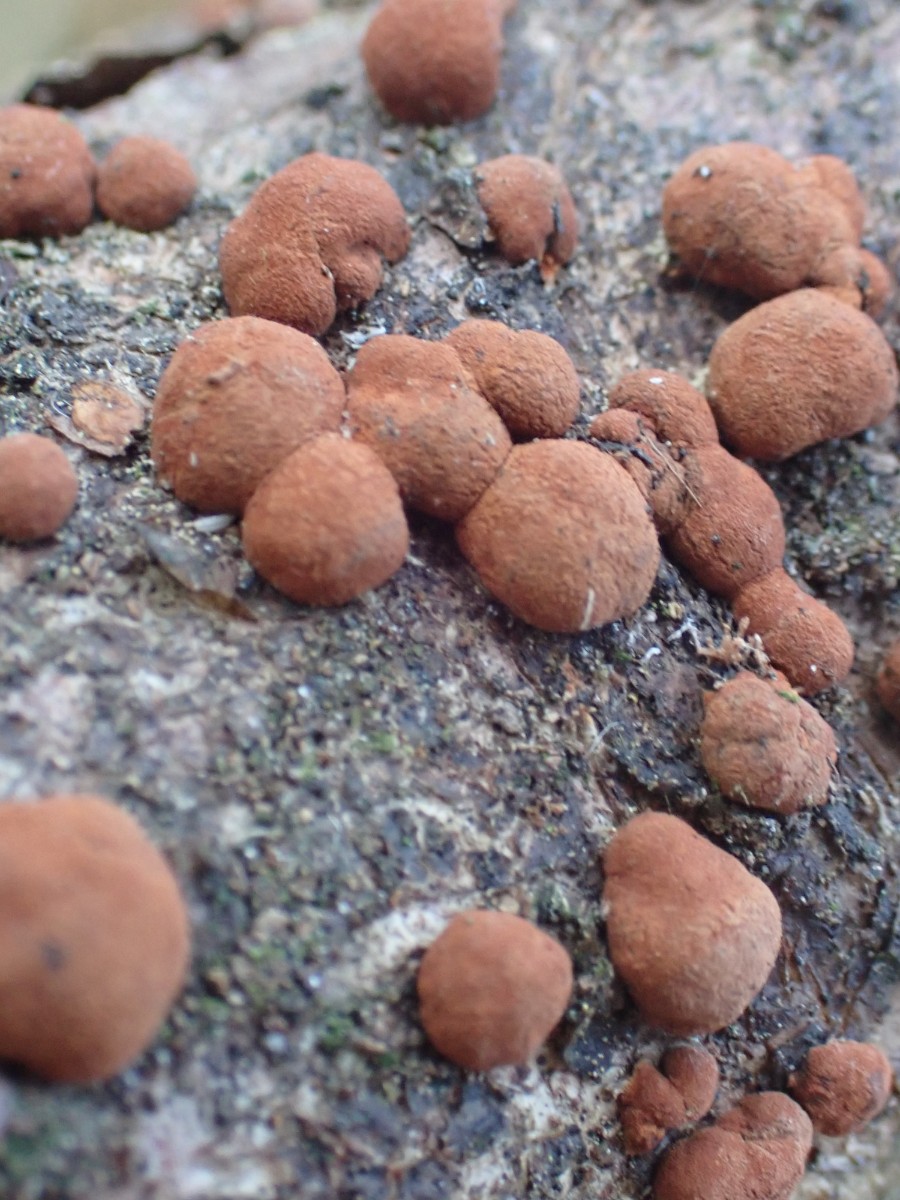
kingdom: Fungi
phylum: Ascomycota
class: Sordariomycetes
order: Xylariales
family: Hypoxylaceae
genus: Hypoxylon
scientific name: Hypoxylon
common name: kulbær
